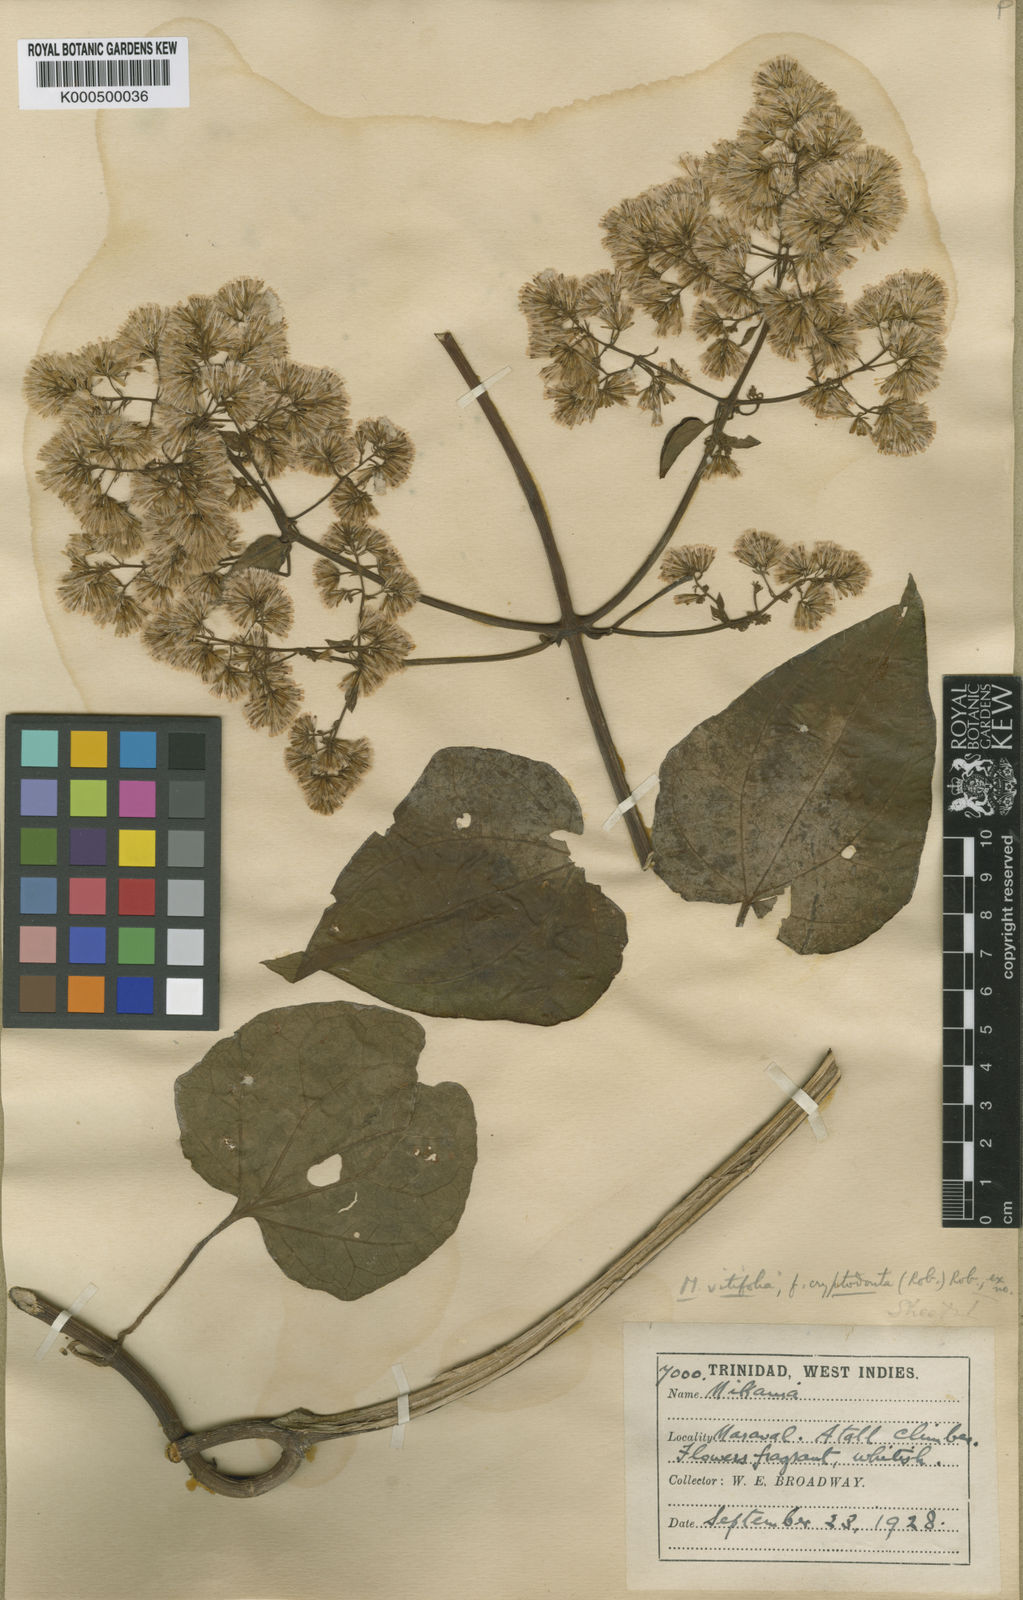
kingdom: Plantae
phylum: Tracheophyta
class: Magnoliopsida
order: Asterales
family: Asteraceae
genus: Mikania
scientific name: Mikania vitifolia
